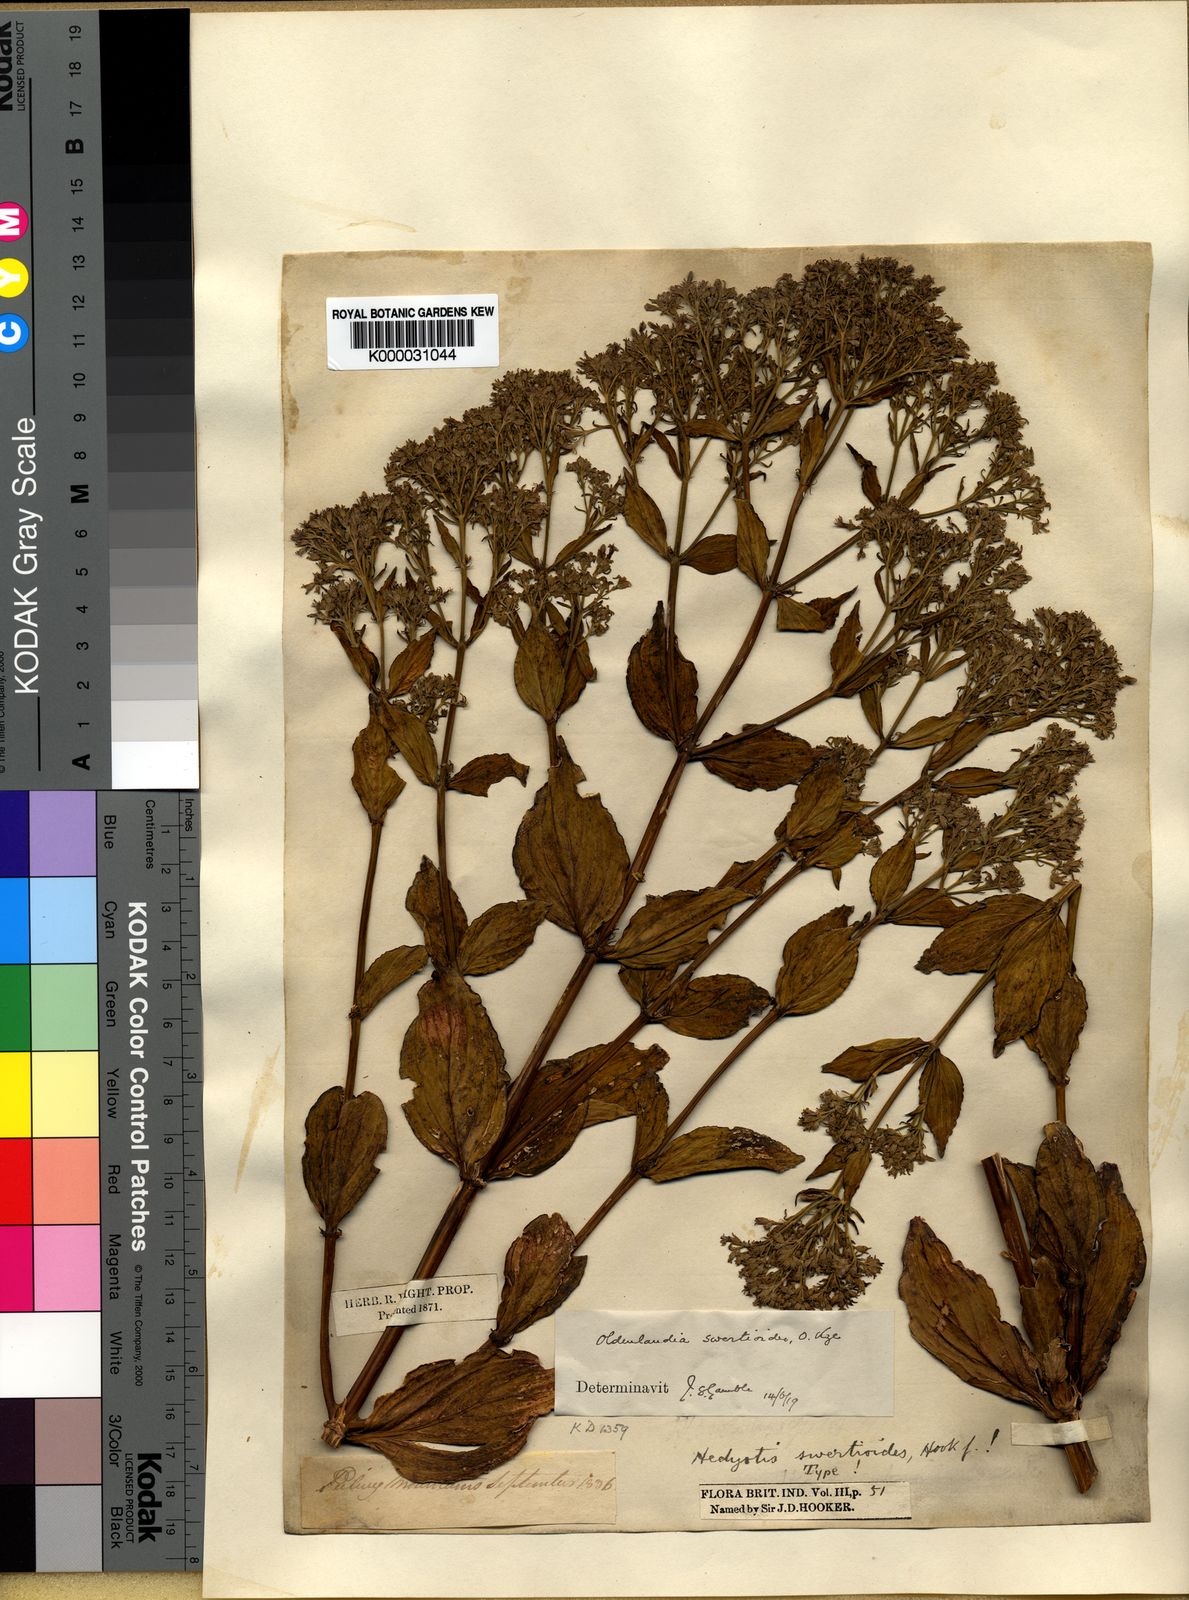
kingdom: Plantae
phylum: Tracheophyta
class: Magnoliopsida
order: Gentianales
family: Rubiaceae
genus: Hedyotis
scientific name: Hedyotis swertioides
